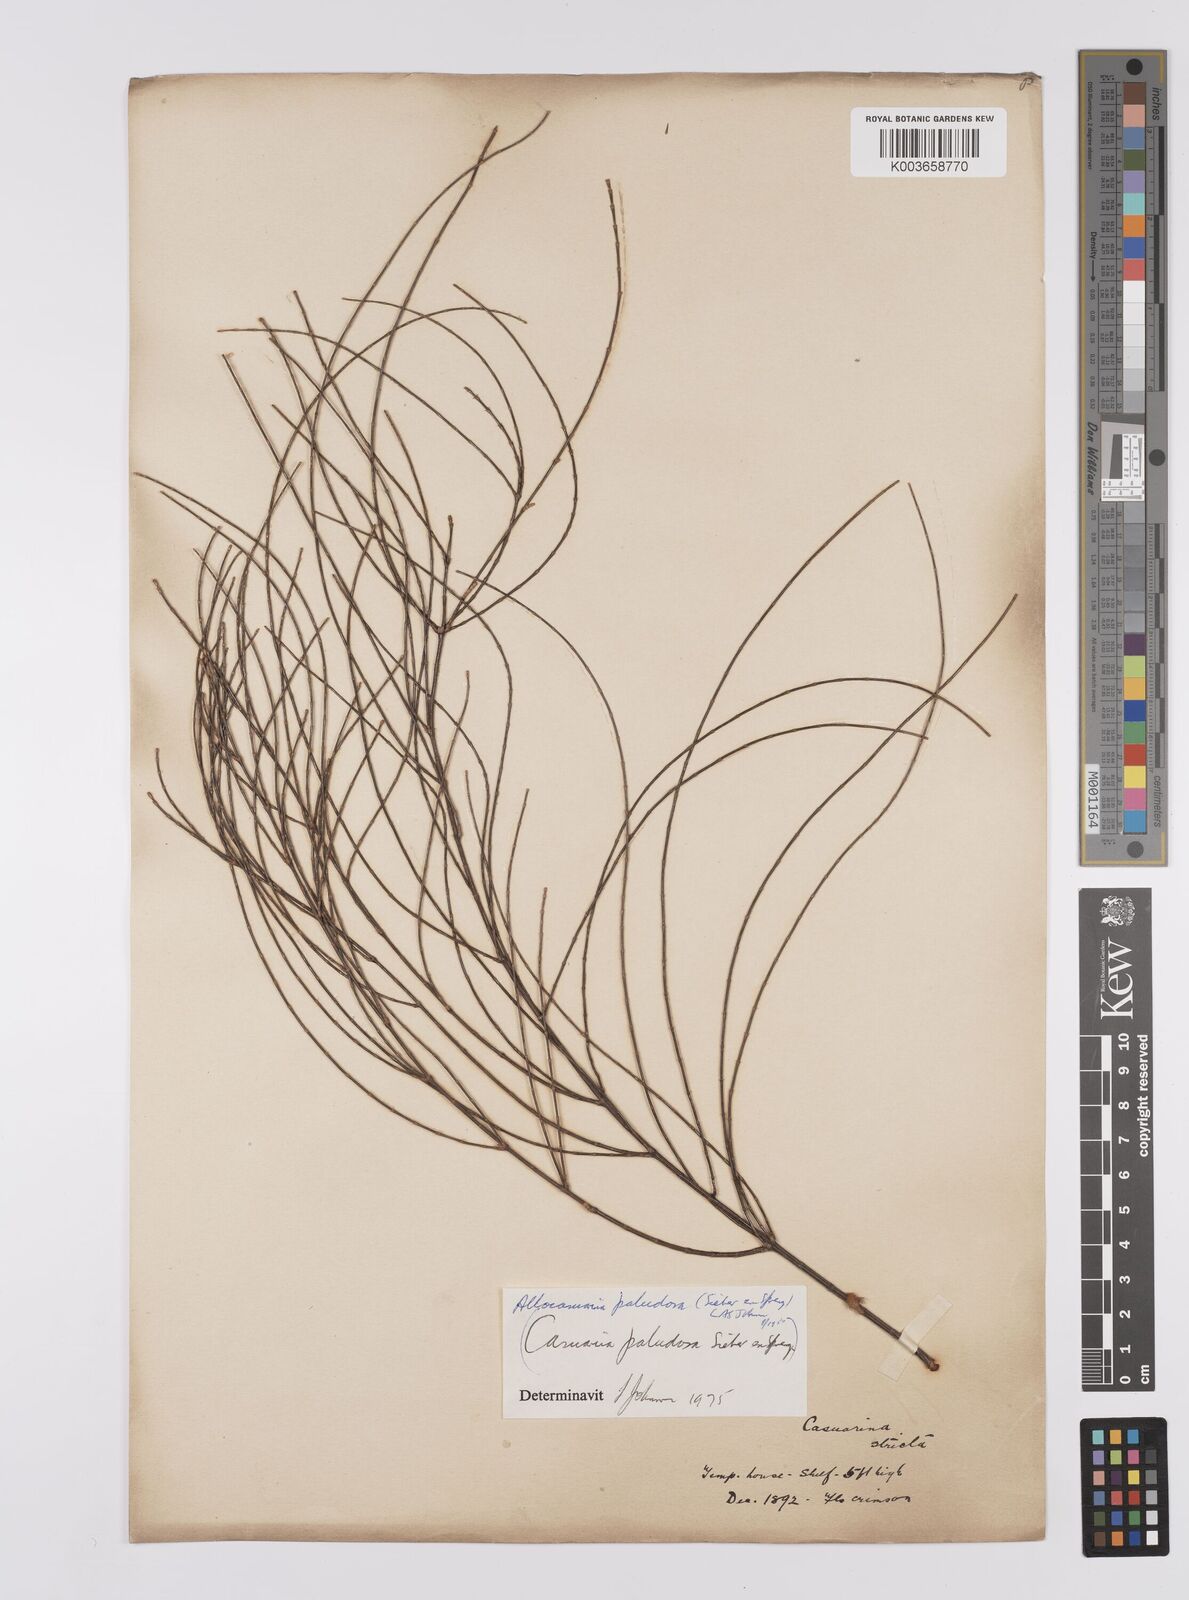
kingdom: Plantae
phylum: Tracheophyta
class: Magnoliopsida
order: Fagales
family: Casuarinaceae
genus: Allocasuarina
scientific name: Allocasuarina paludosa
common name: Scrub she-oak
